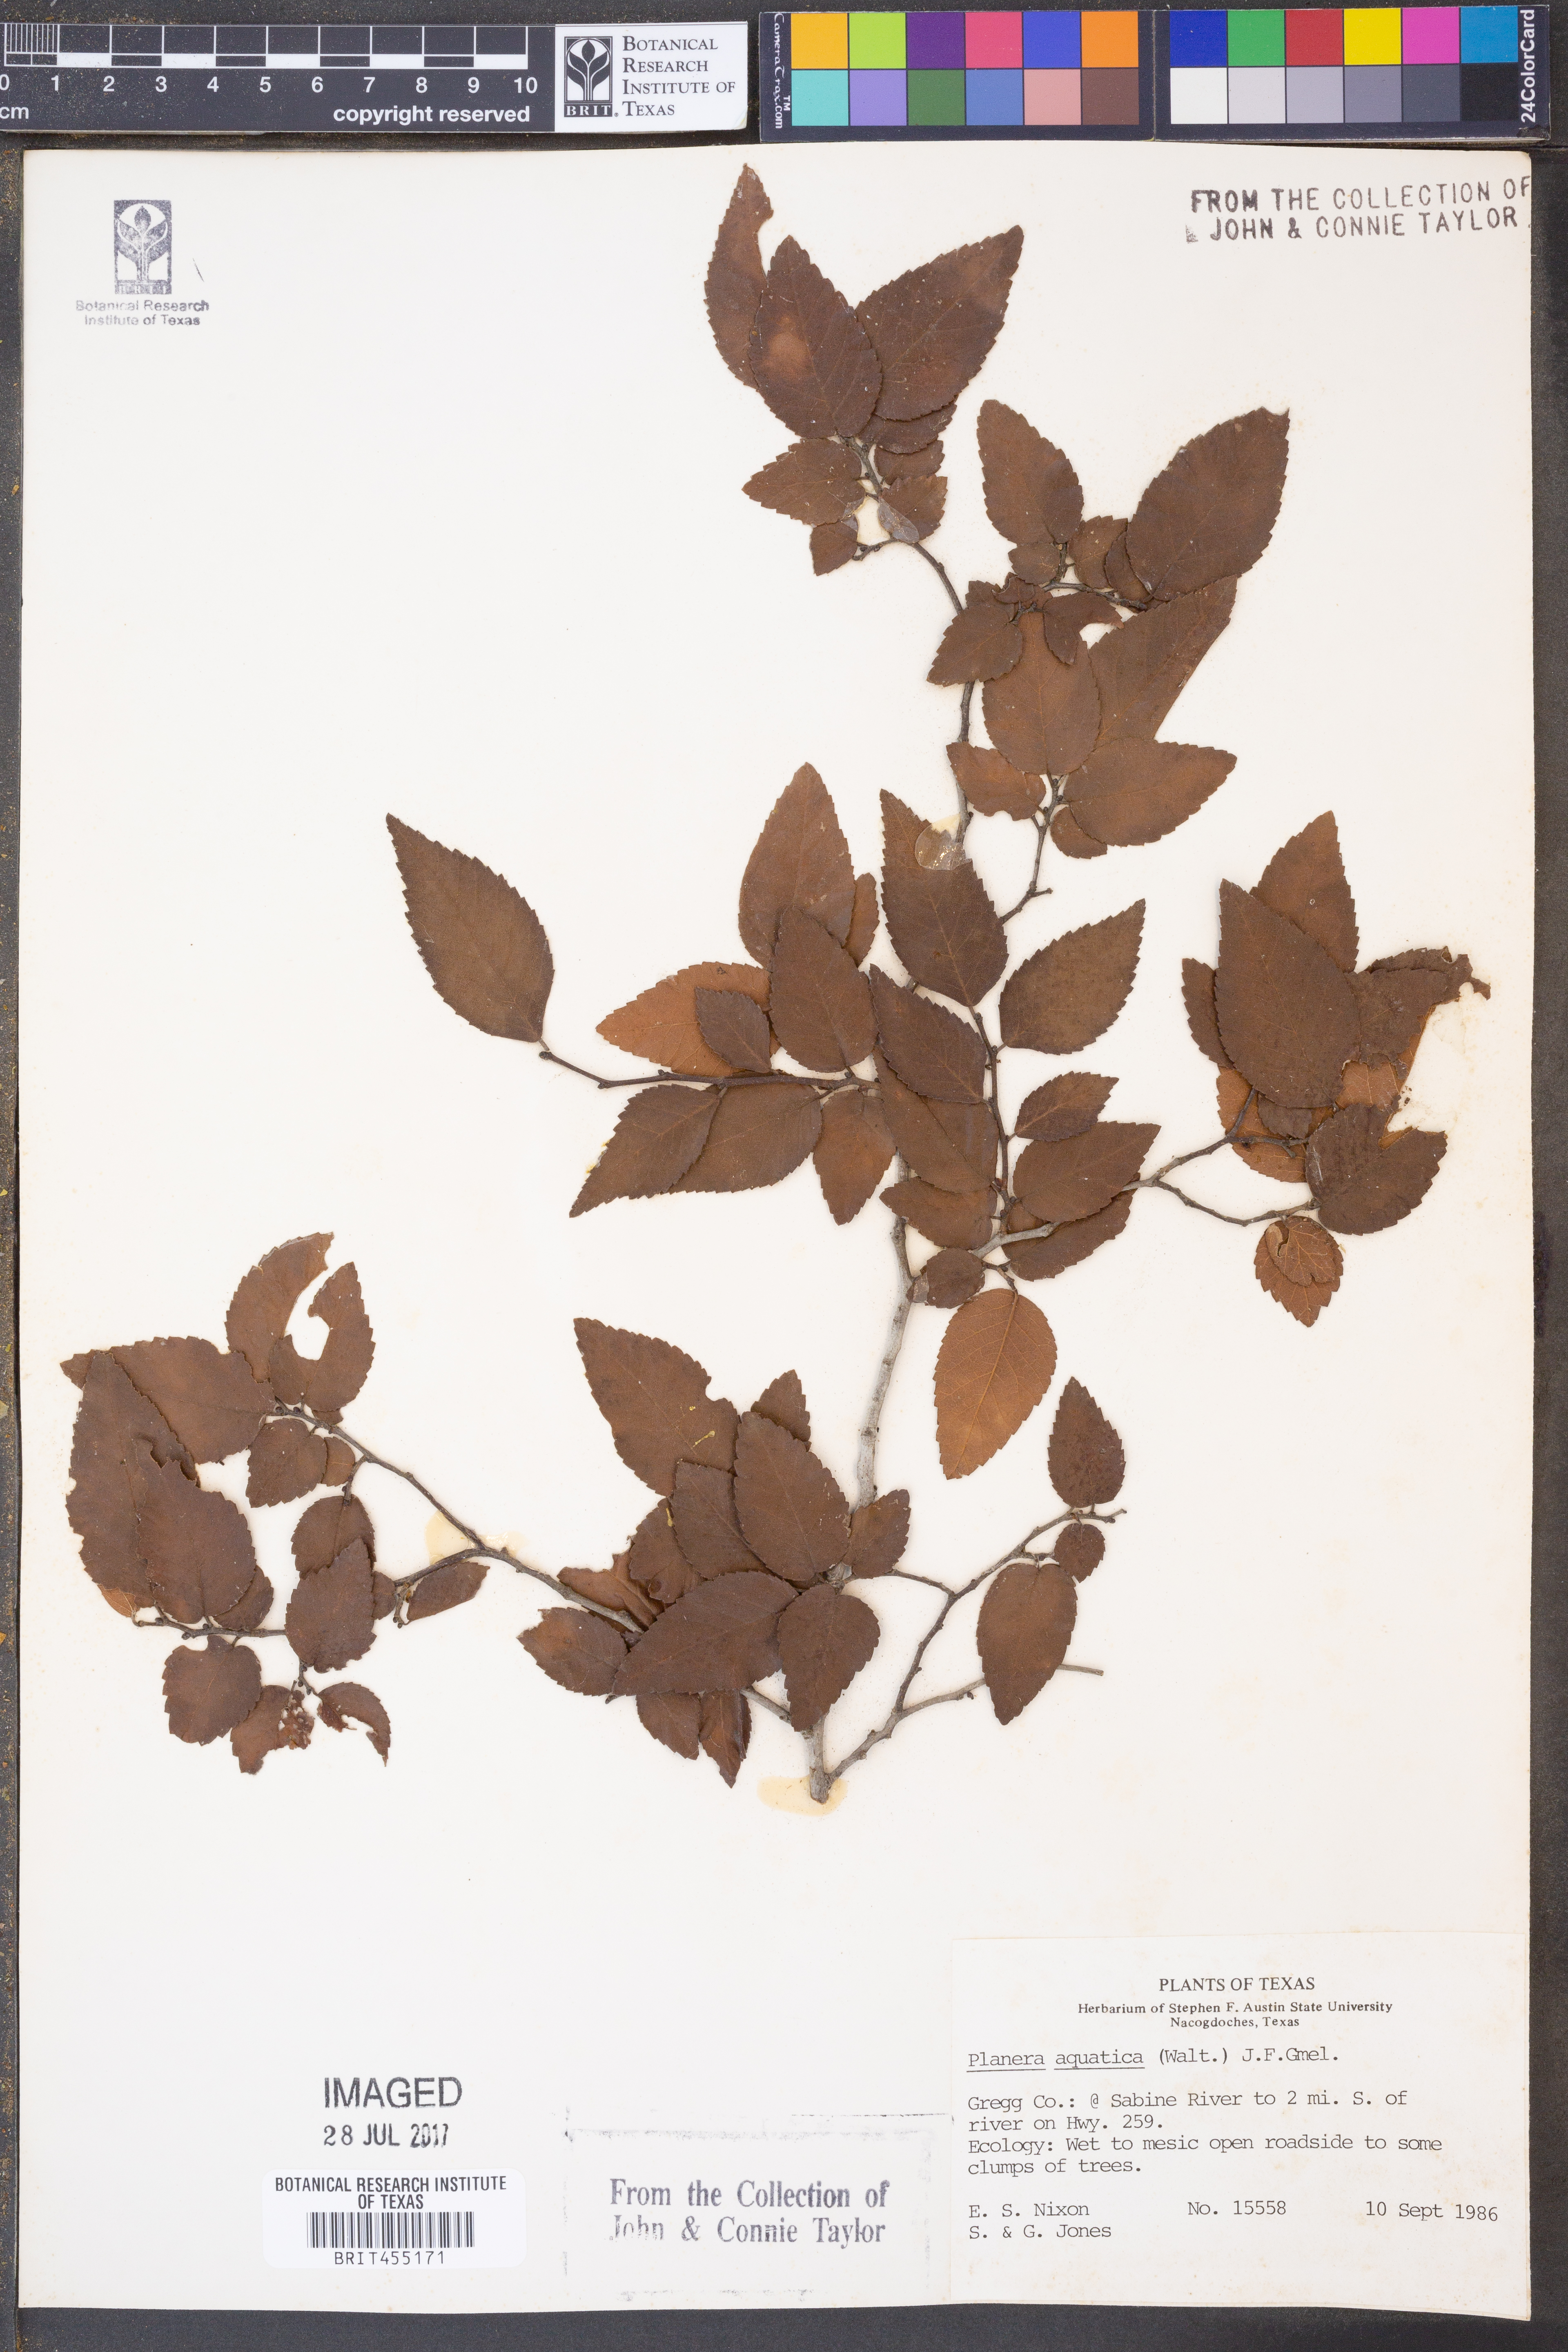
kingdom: Plantae
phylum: Tracheophyta
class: Magnoliopsida
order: Rosales
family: Ulmaceae
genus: Planera
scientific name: Planera aquatica
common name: Water-elm
